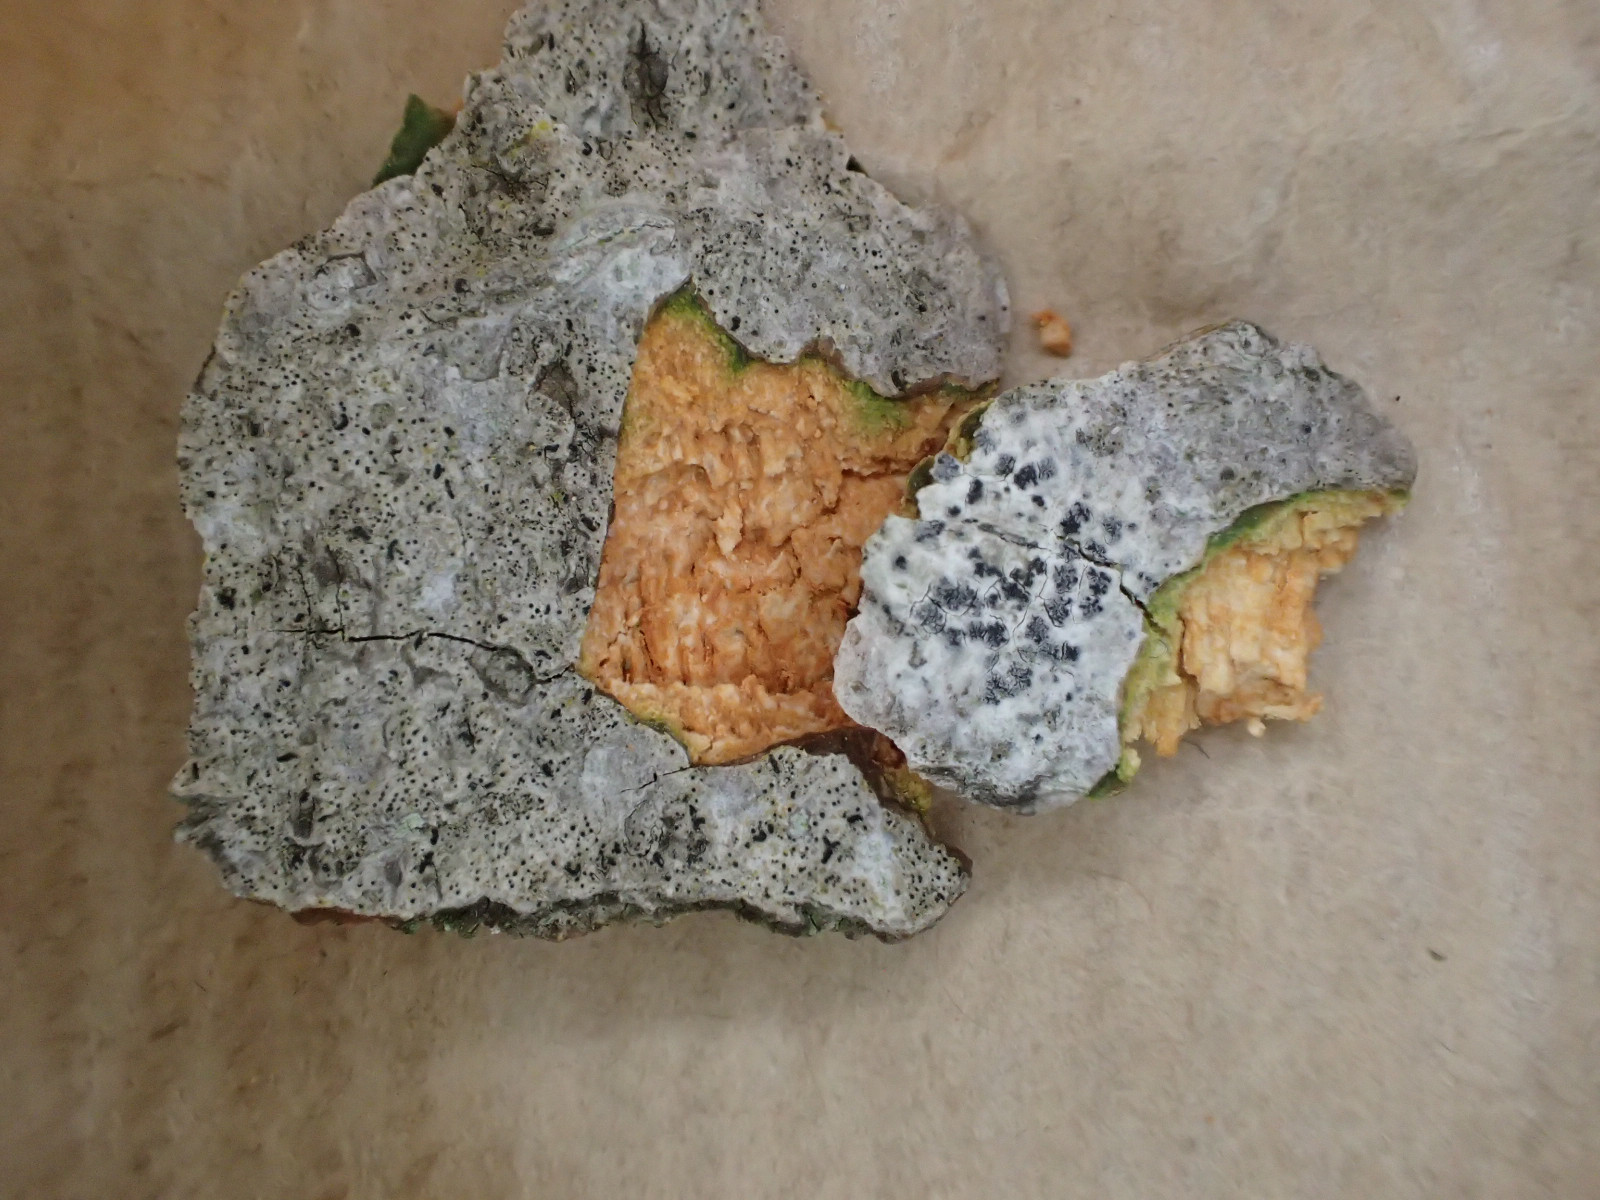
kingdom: Fungi
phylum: Ascomycota
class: Lecanoromycetes
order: Ostropales
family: Graphidaceae
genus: Phaeographis
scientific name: Phaeographis dendritica
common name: indsænket skriftlav
